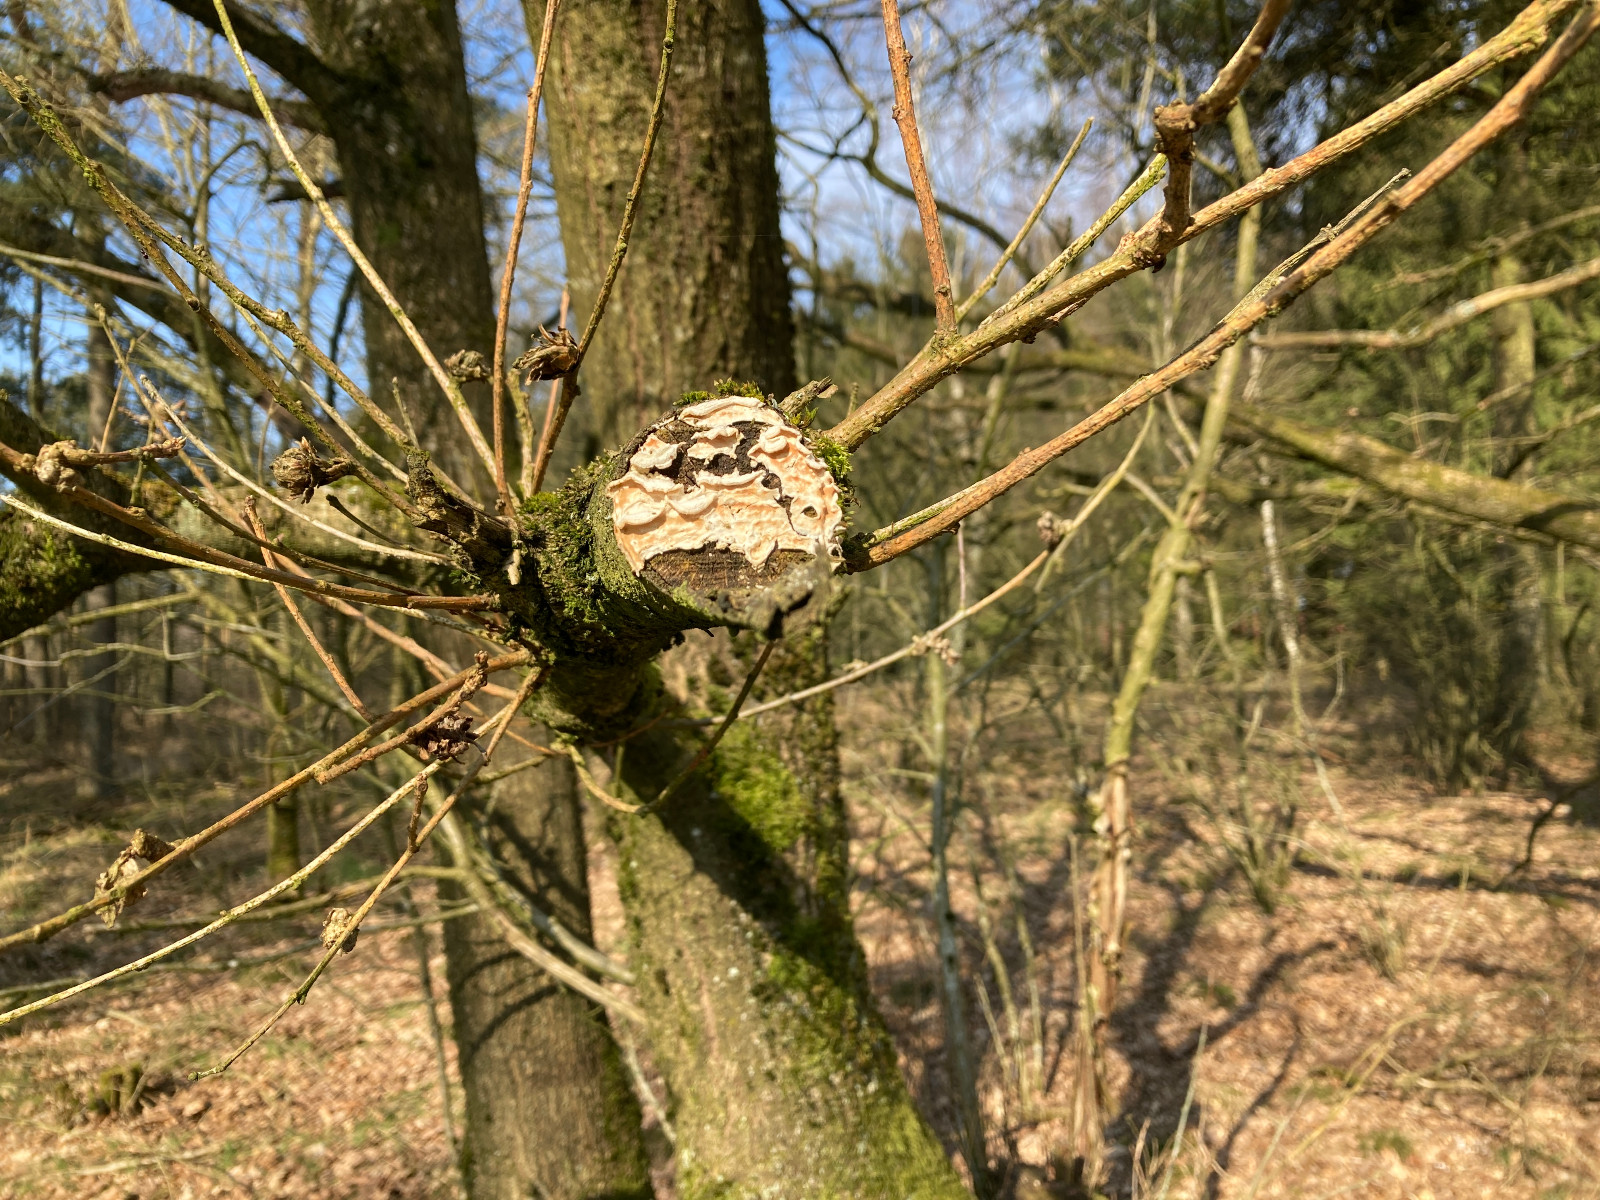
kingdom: Fungi
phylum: Basidiomycota
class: Agaricomycetes
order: Corticiales
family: Corticiaceae
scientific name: Corticiaceae
